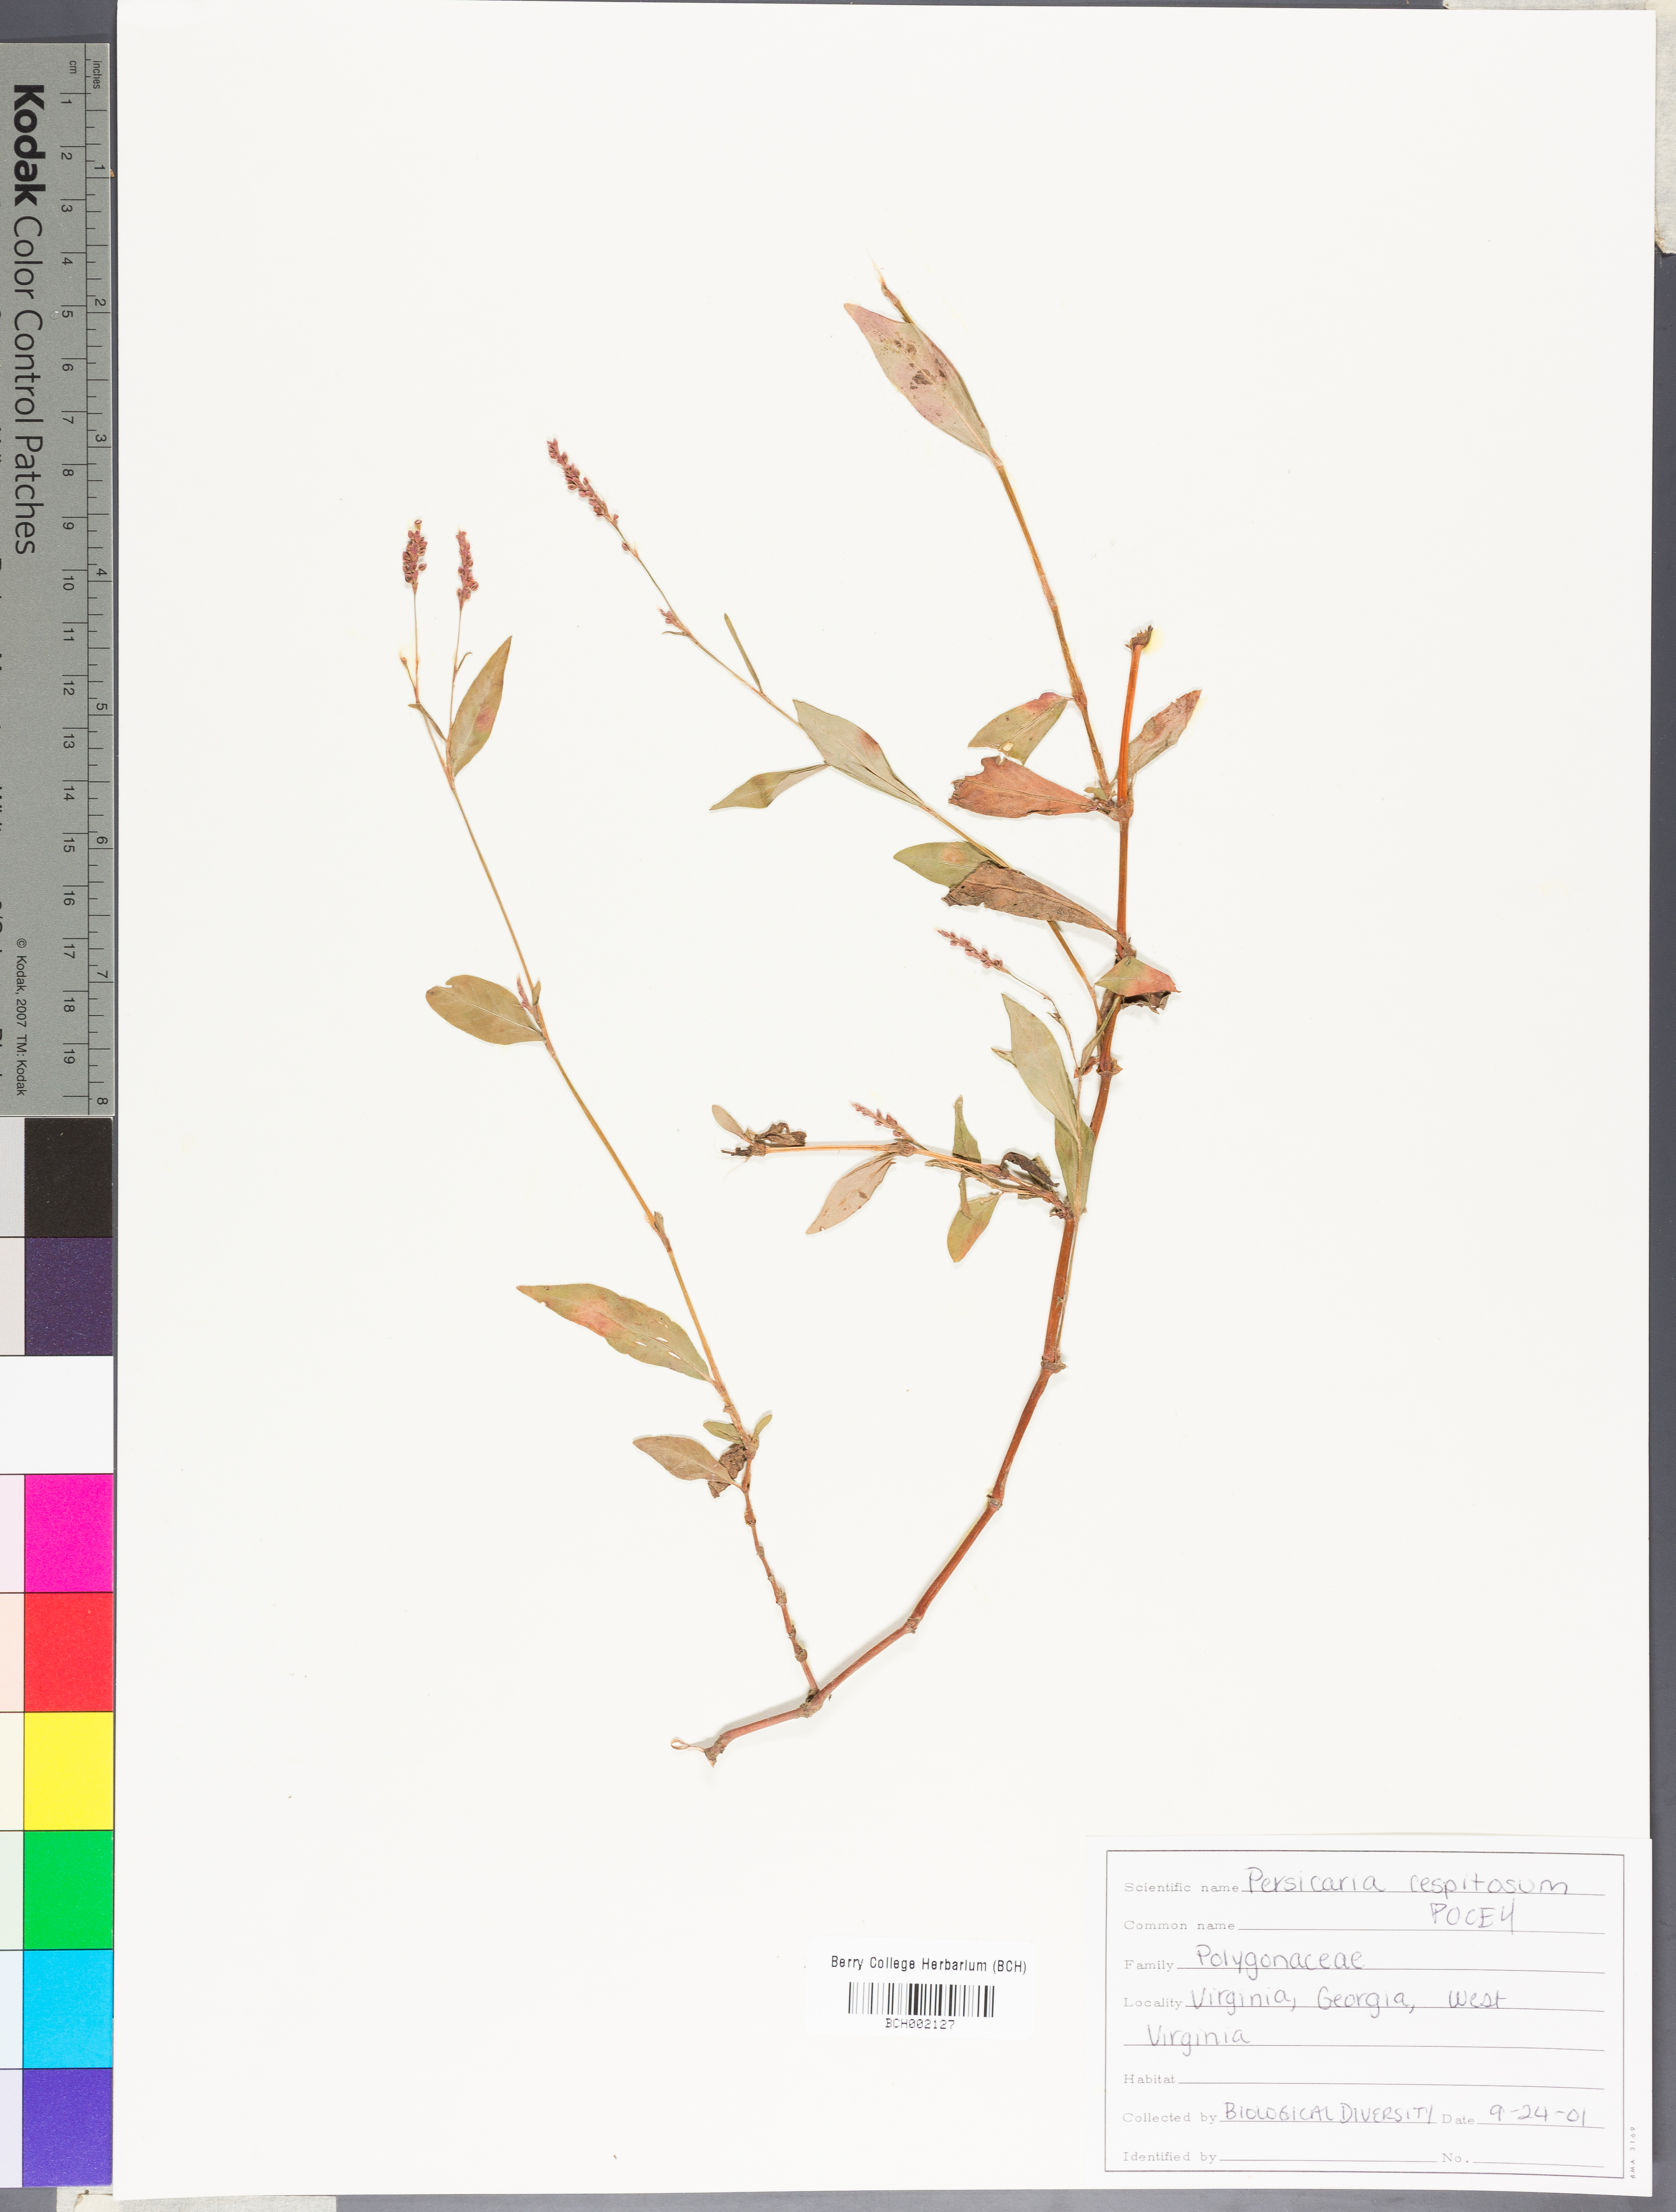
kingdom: Plantae
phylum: Tracheophyta
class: Magnoliopsida
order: Caryophyllales
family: Polygonaceae
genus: Persicaria
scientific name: Persicaria posumbu
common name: Oriental lady's thumb
